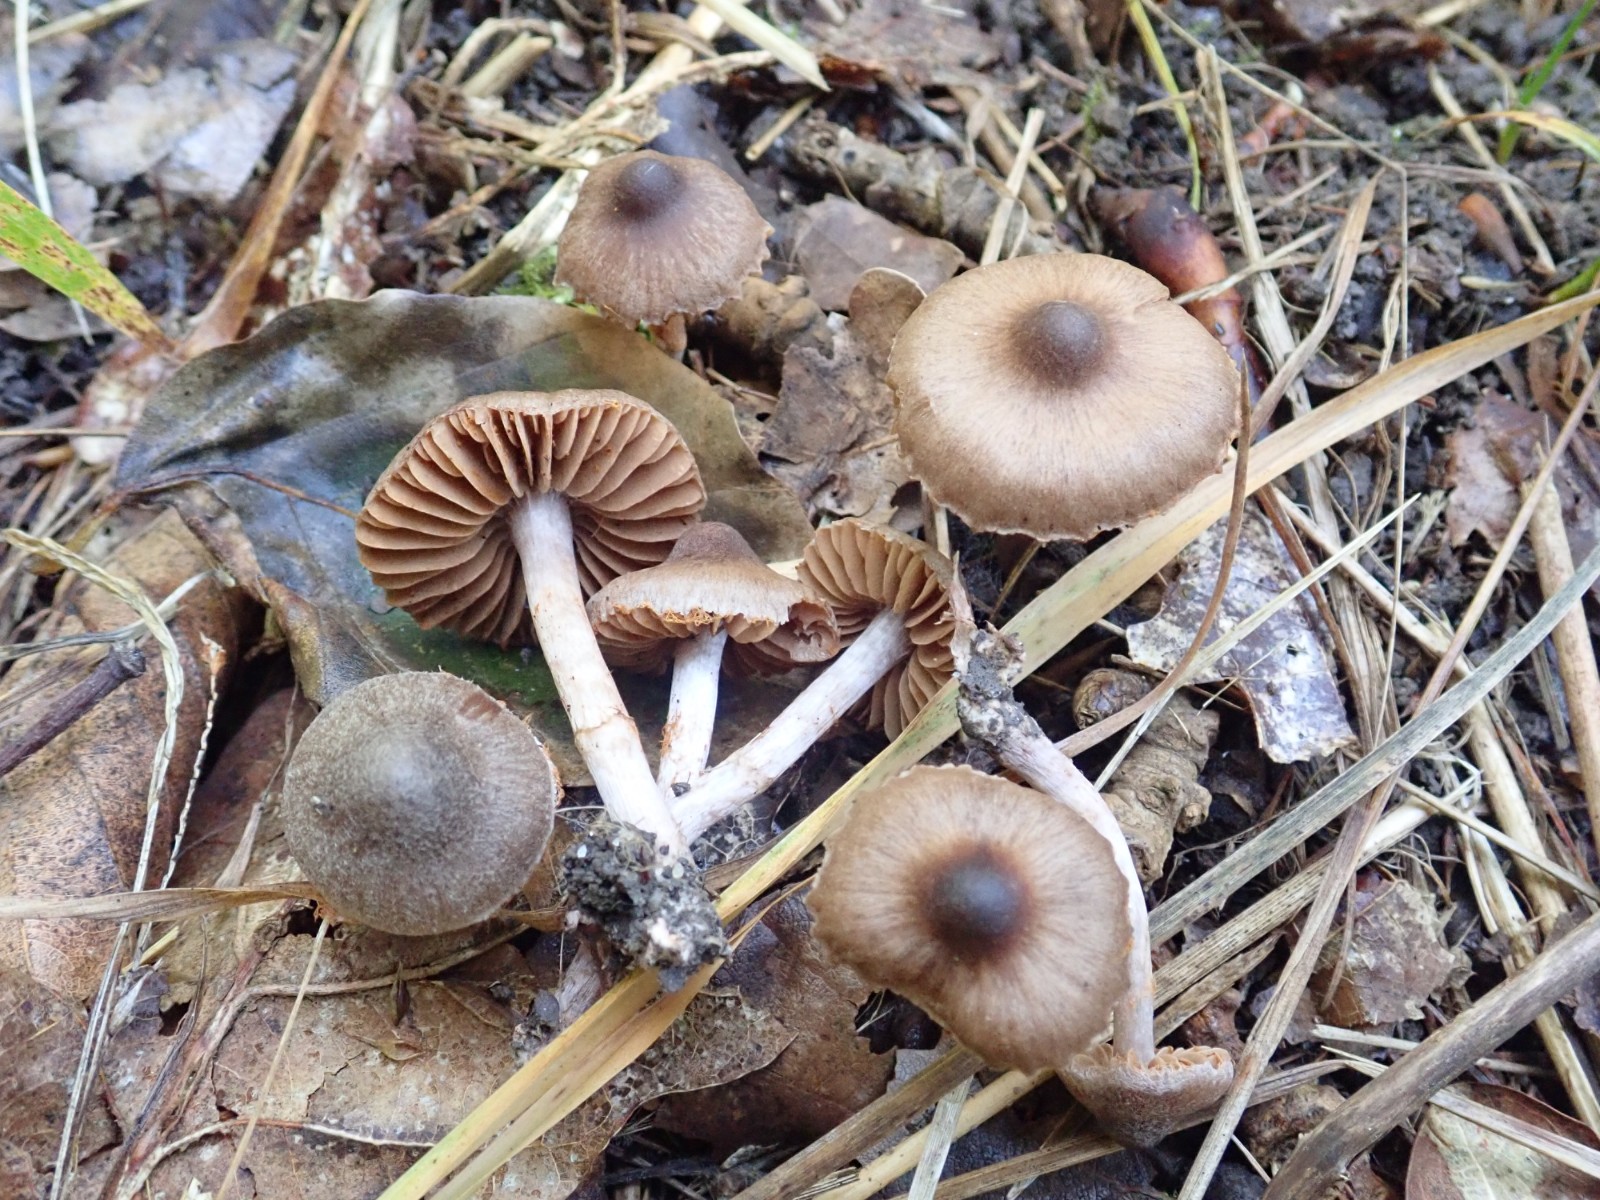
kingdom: Fungi
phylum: Basidiomycota
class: Agaricomycetes
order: Agaricales
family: Cortinariaceae
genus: Cortinarius
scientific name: Cortinarius
